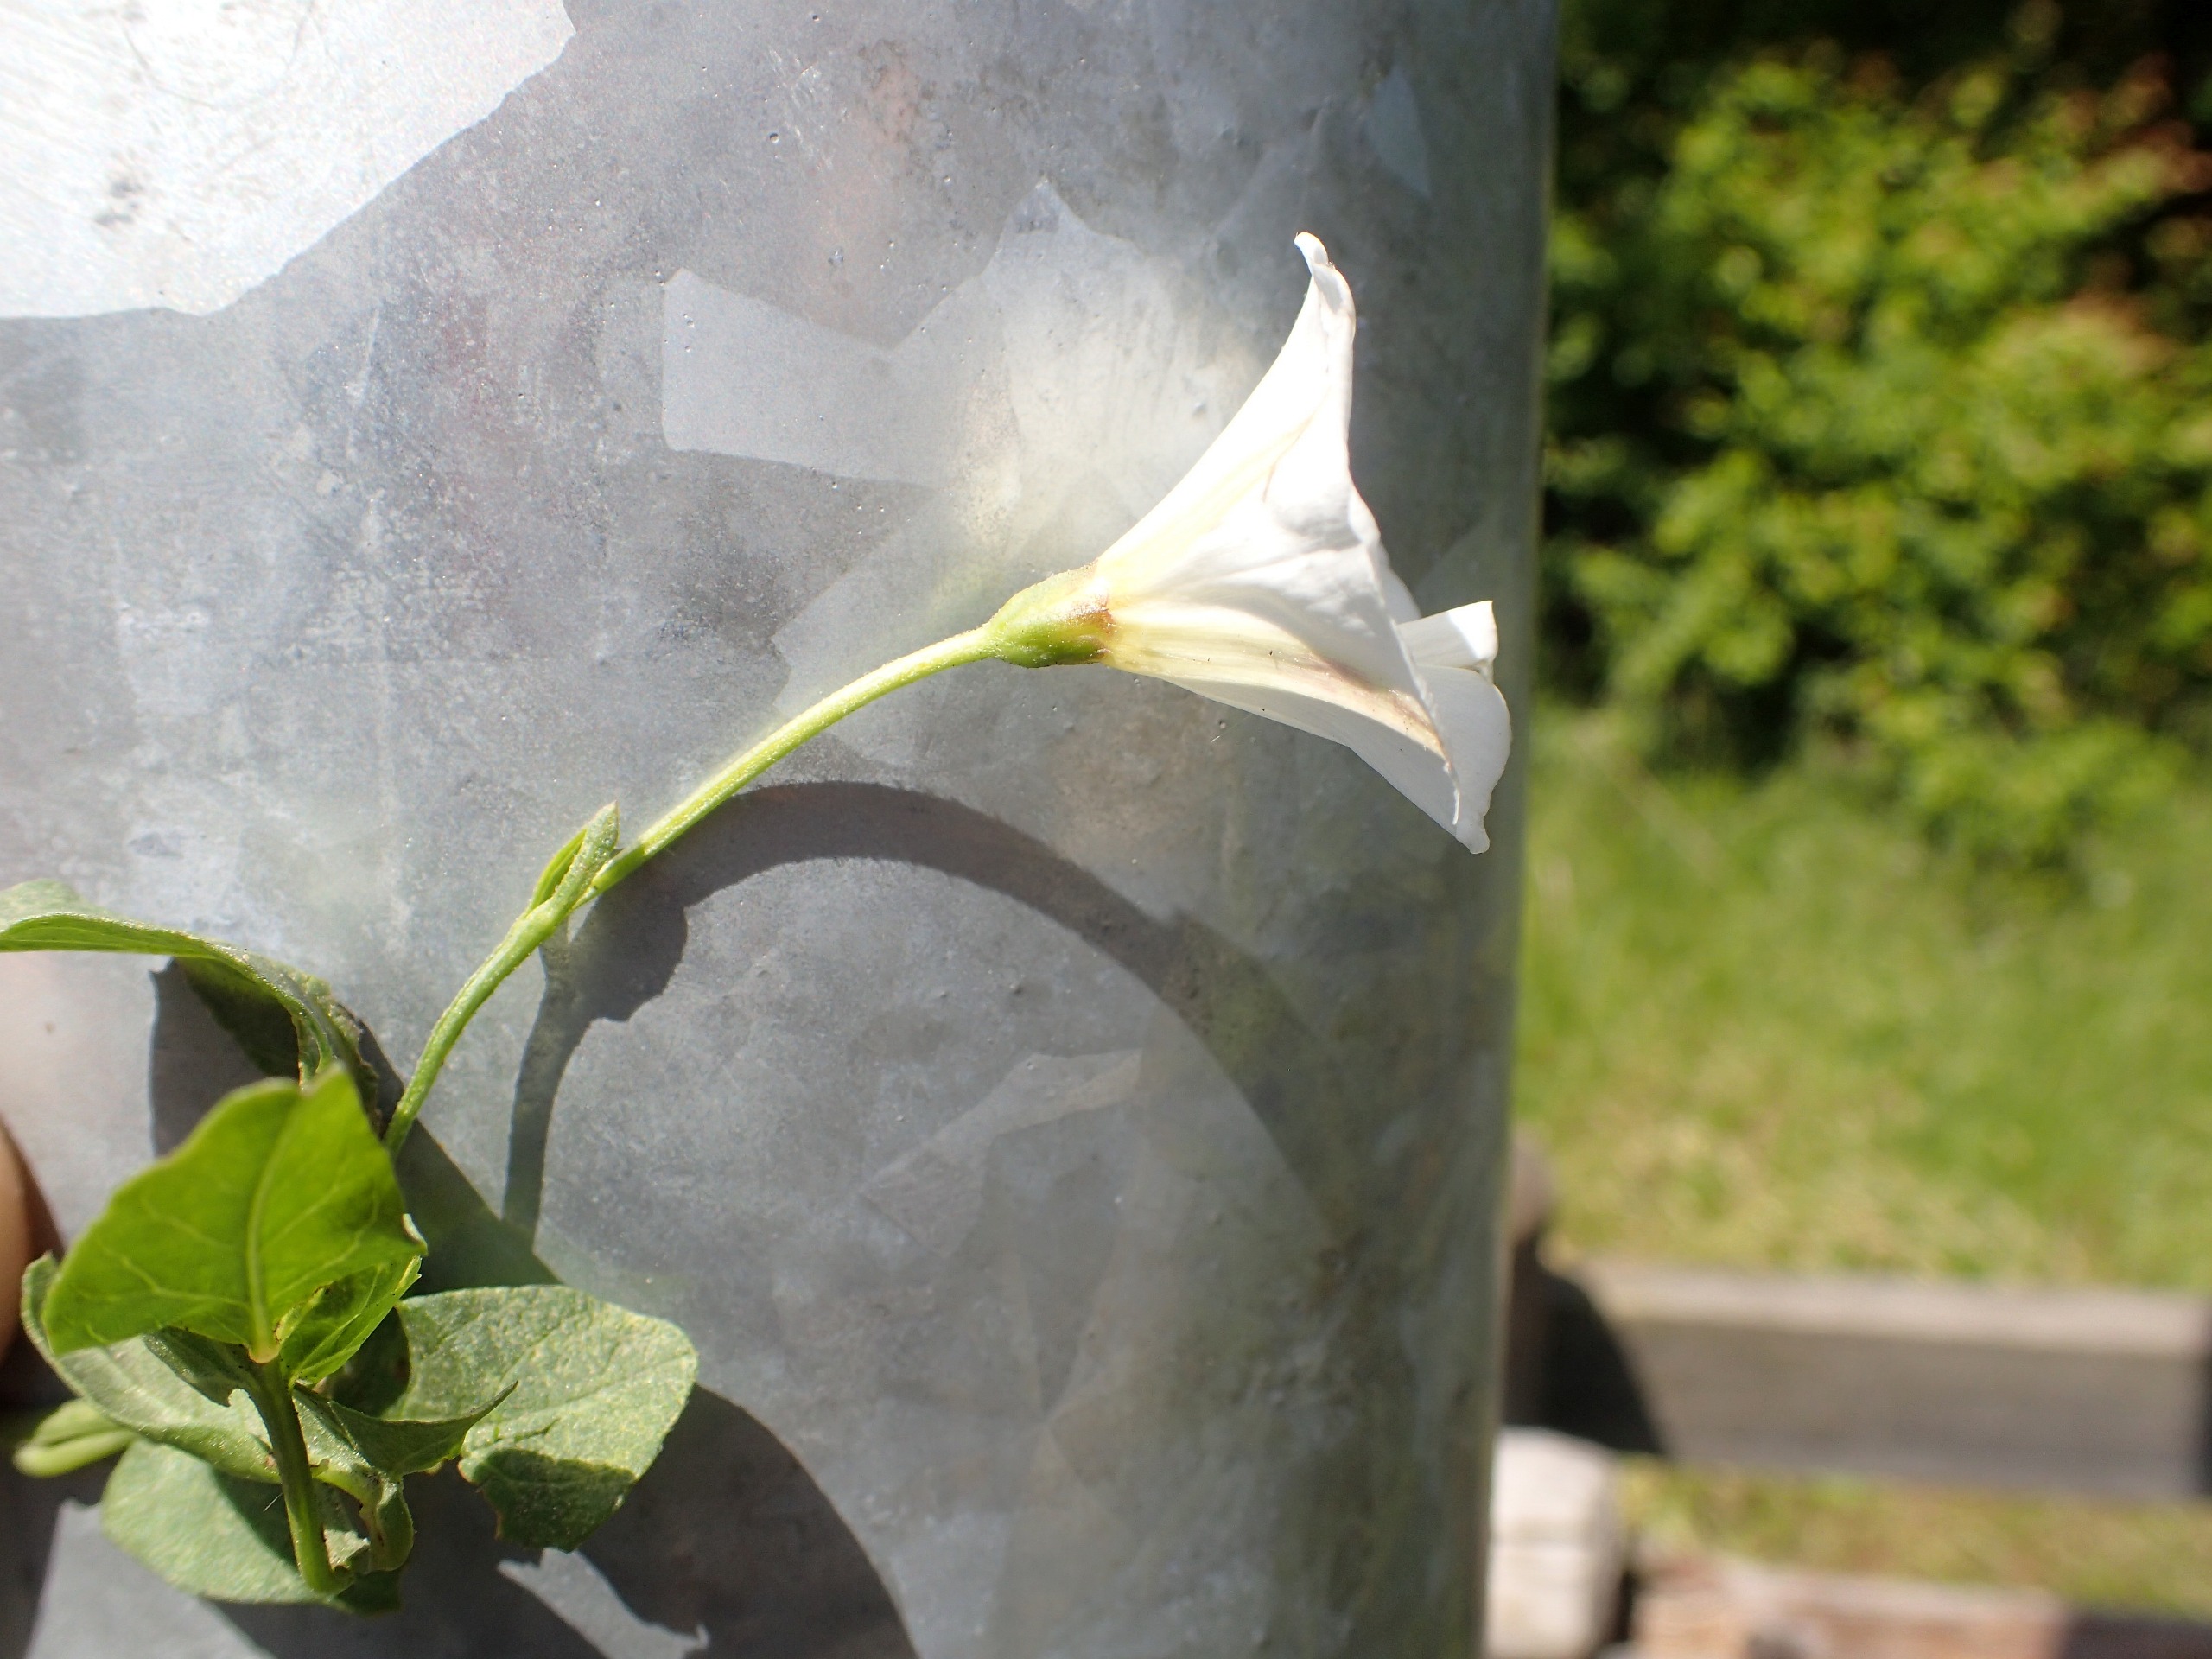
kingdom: Plantae
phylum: Tracheophyta
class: Magnoliopsida
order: Solanales
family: Convolvulaceae
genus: Convolvulus
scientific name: Convolvulus arvensis
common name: Ager-snerle
